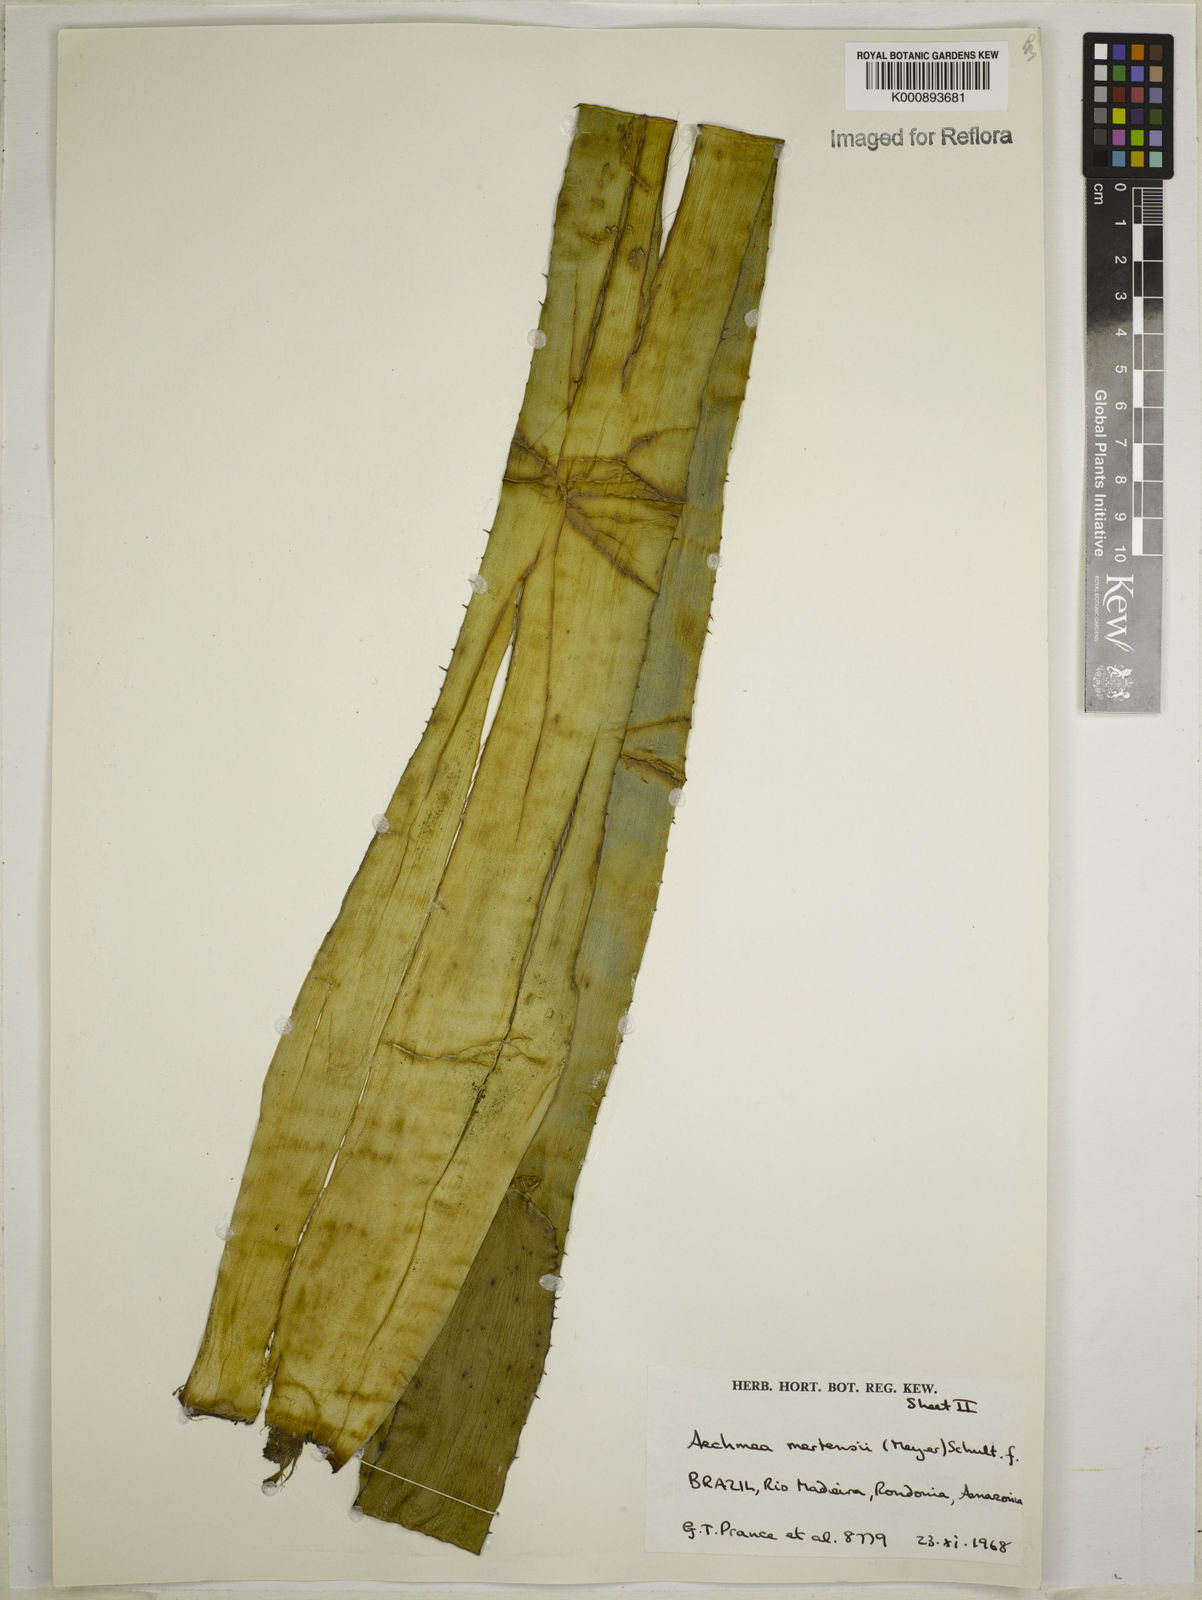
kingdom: Plantae
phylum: Tracheophyta
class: Liliopsida
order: Poales
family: Bromeliaceae
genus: Aechmea
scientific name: Aechmea mertensii
